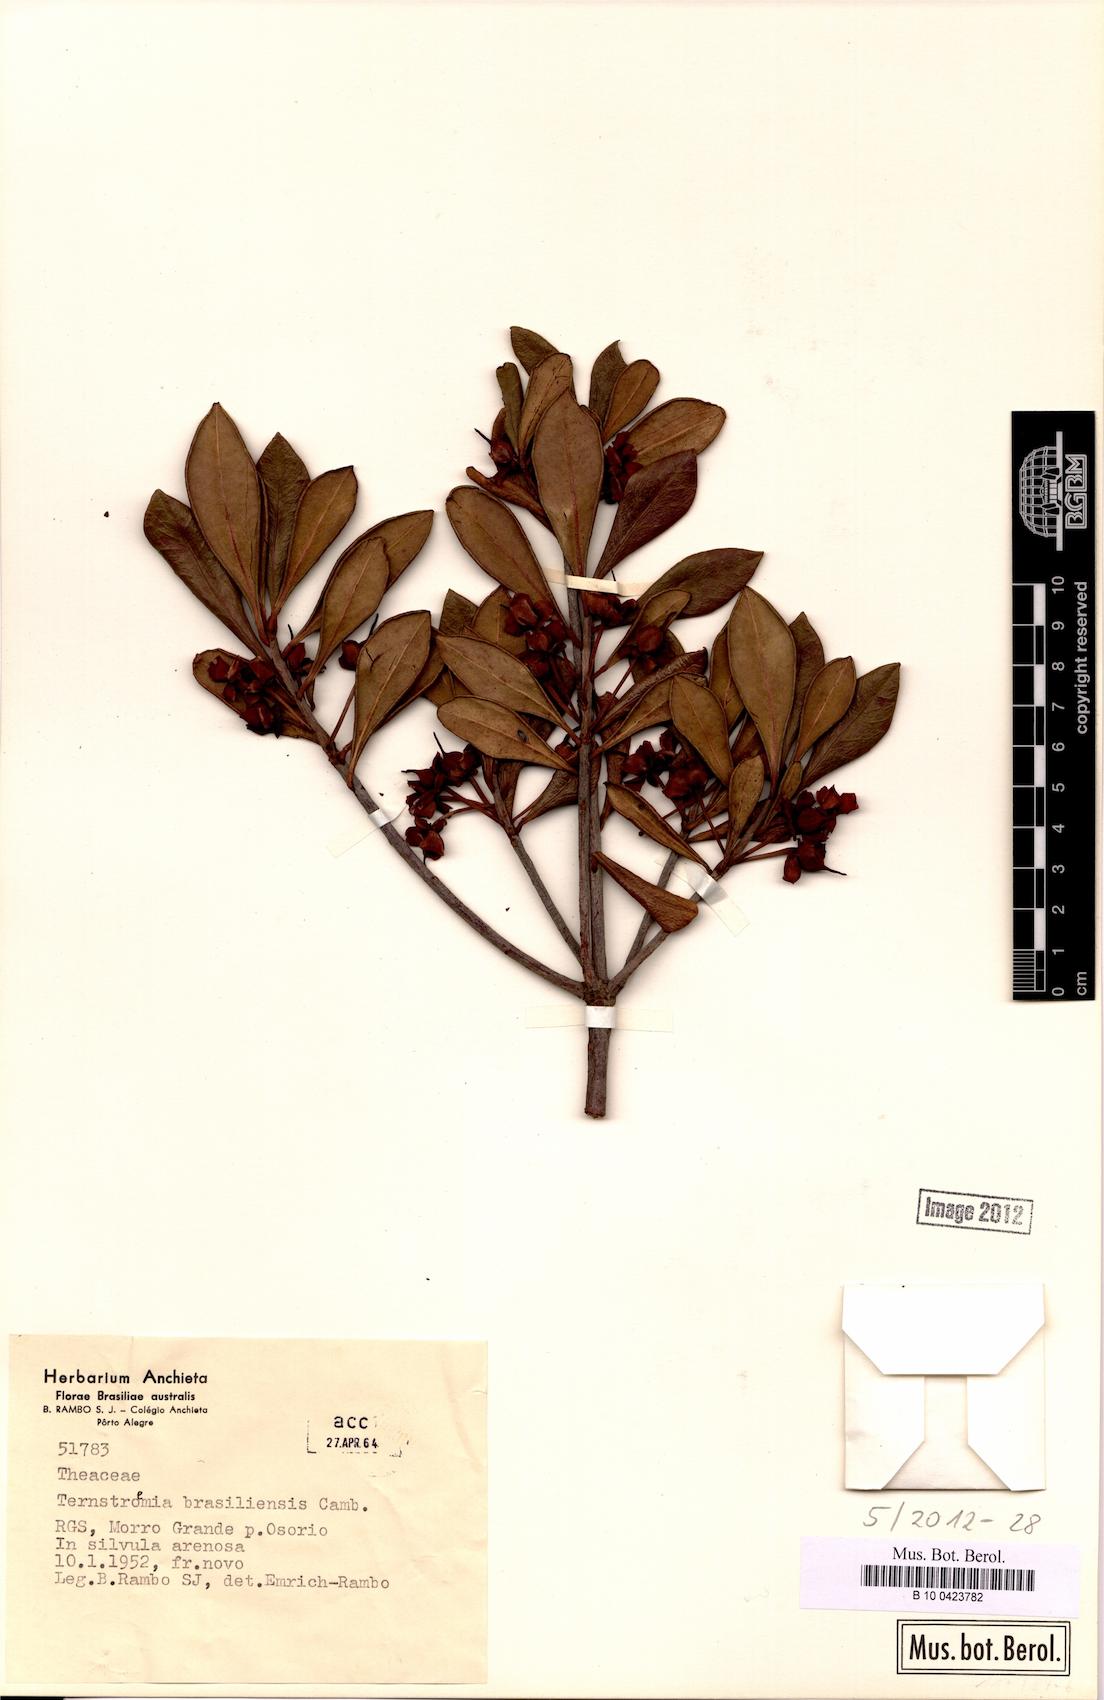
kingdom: Plantae
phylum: Tracheophyta
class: Magnoliopsida
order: Ericales
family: Pentaphylacaceae
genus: Ternstroemia
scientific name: Ternstroemia brasiliensis
